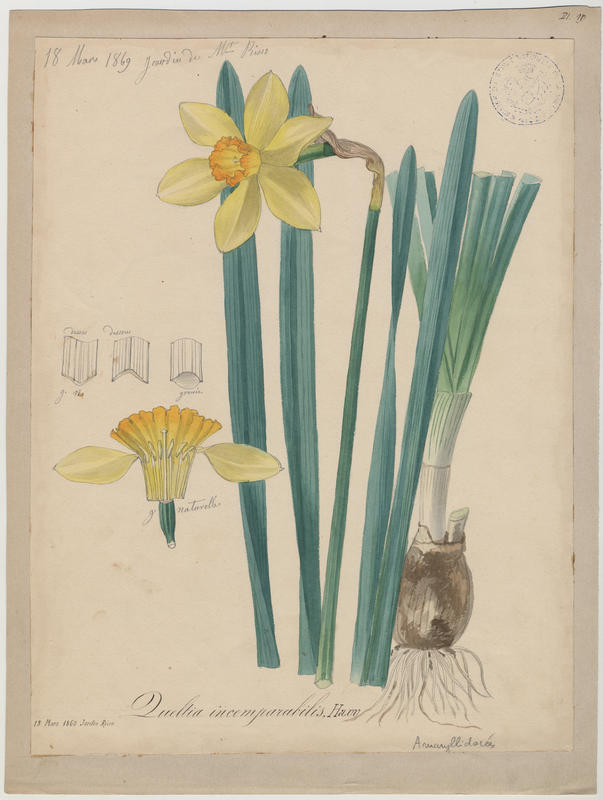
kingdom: Plantae
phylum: Tracheophyta
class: Liliopsida
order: Asparagales
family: Amaryllidaceae
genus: Narcissus
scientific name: Narcissus incomparabilis
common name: Nonesuch daffodil
